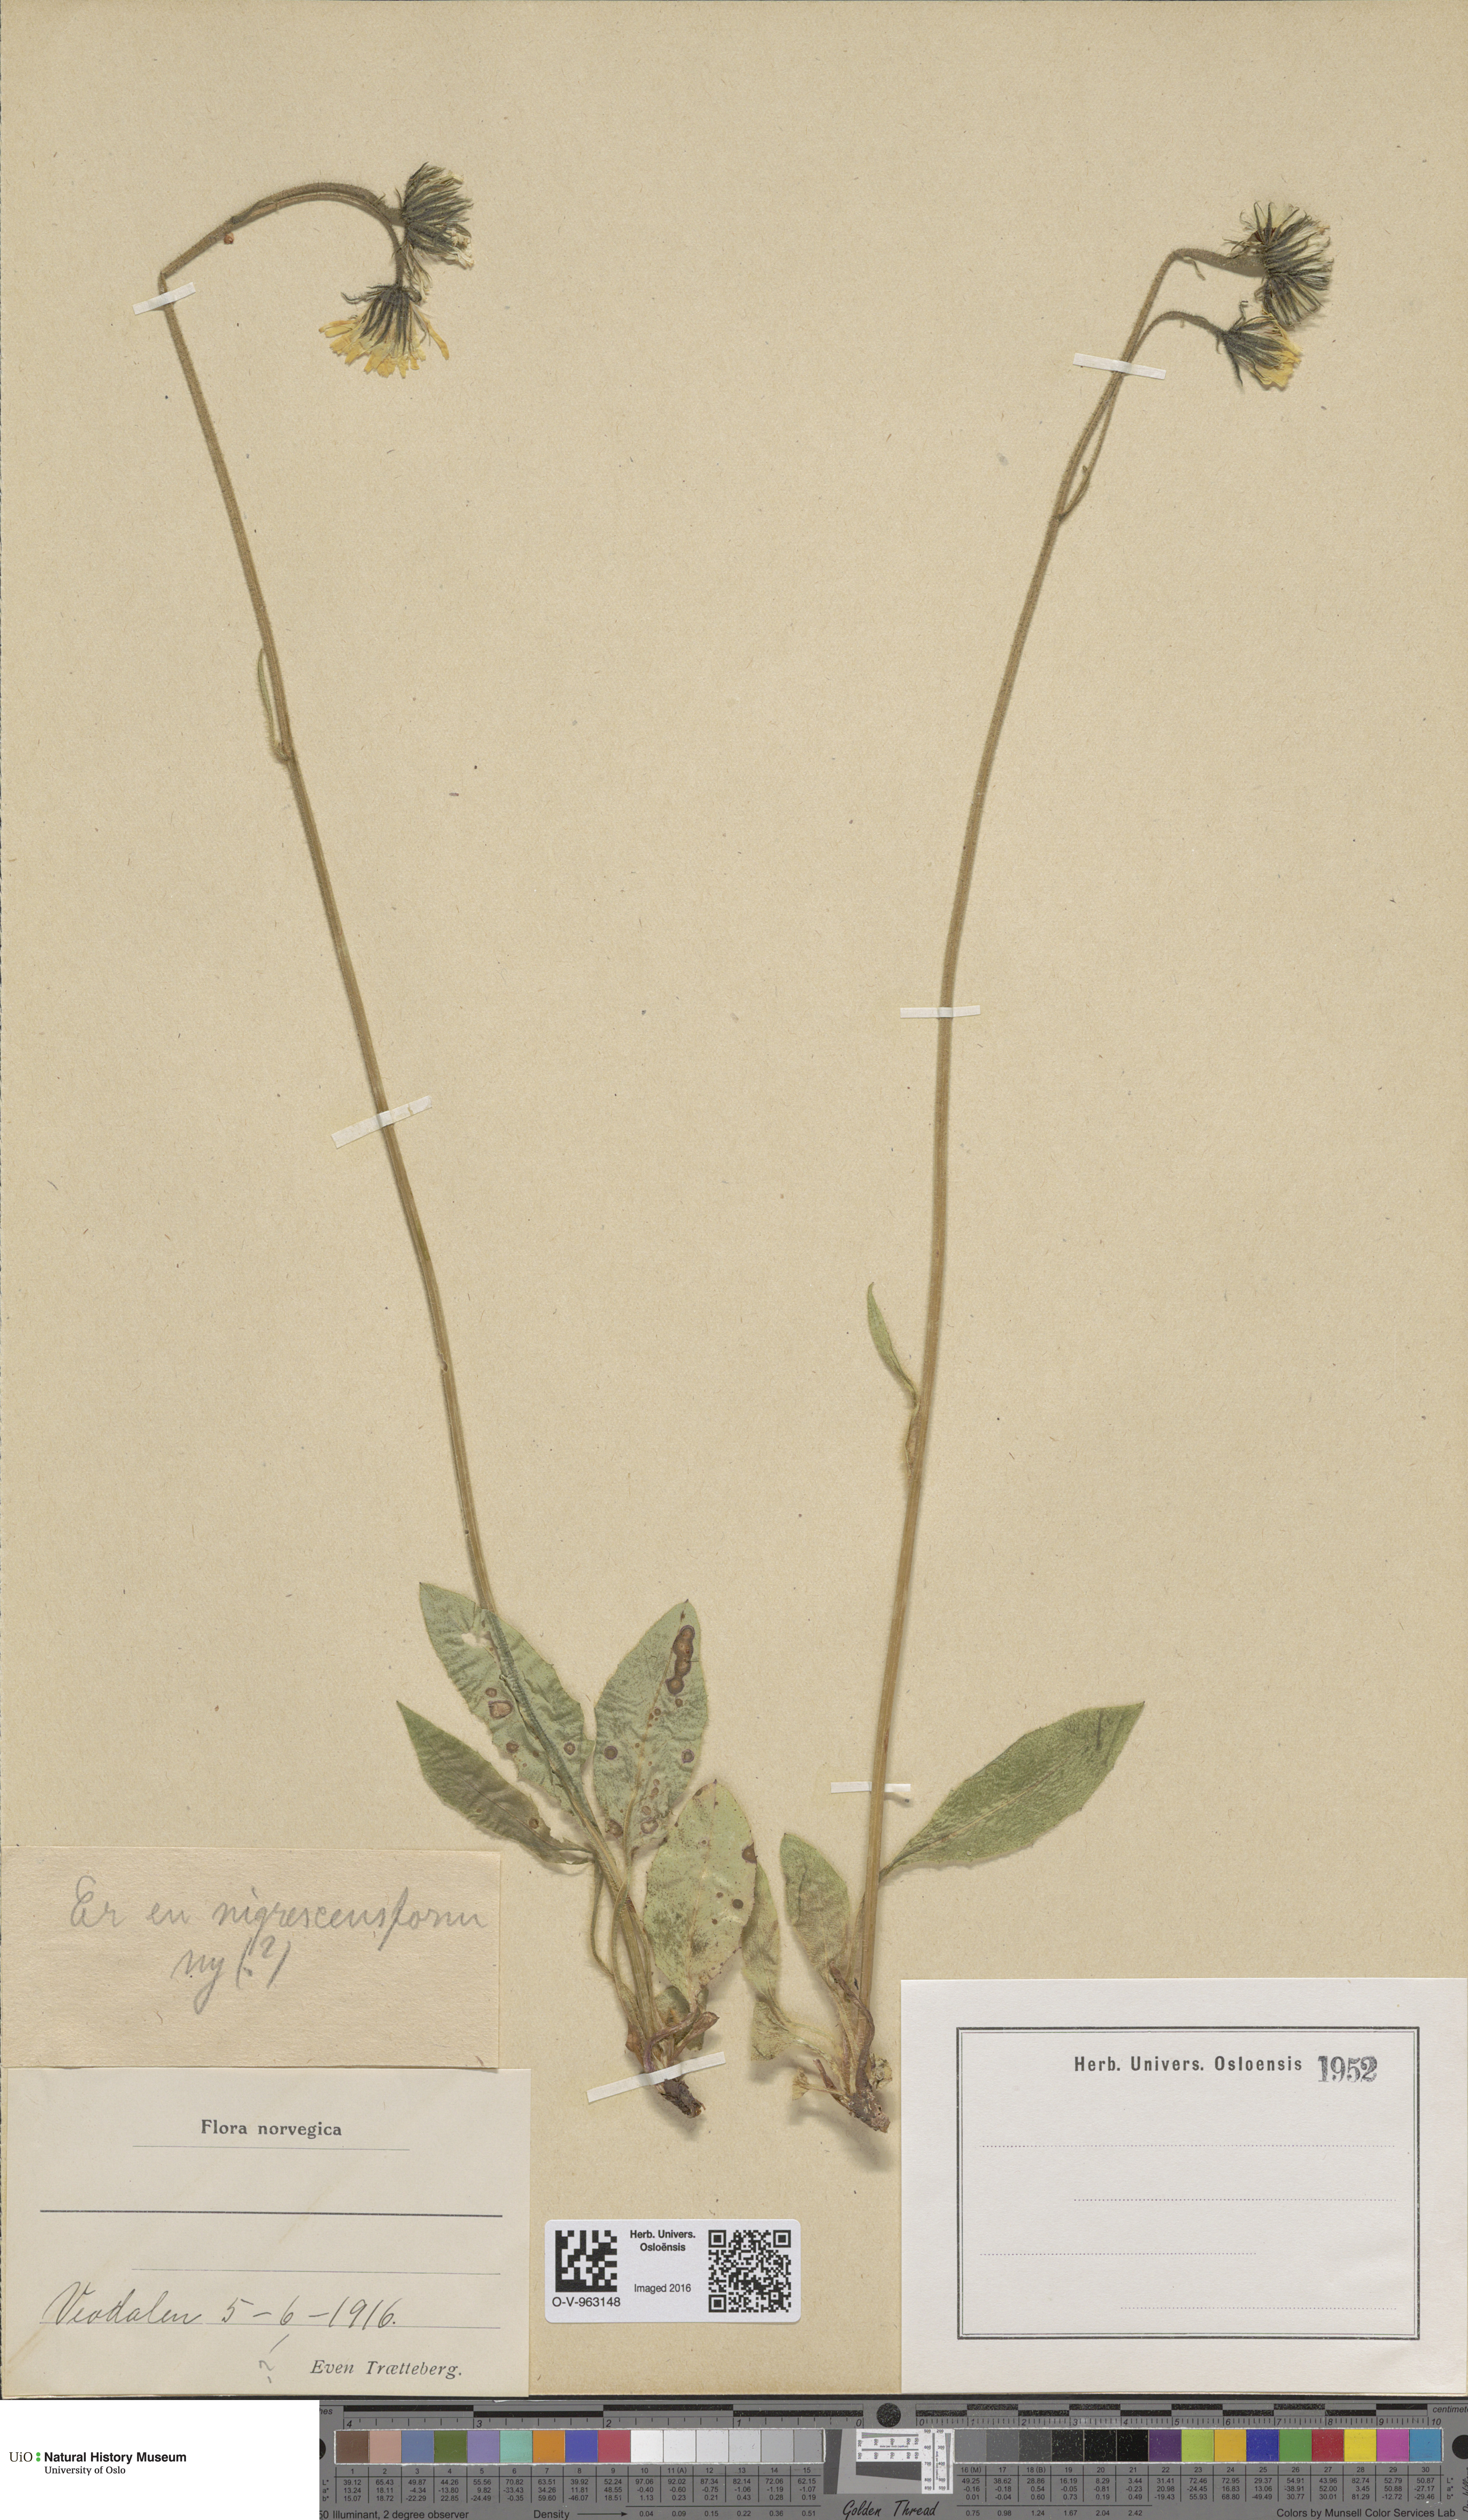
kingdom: Plantae
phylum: Tracheophyta
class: Magnoliopsida
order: Asterales
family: Asteraceae
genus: Hieracium
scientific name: Hieracium nigrescens
